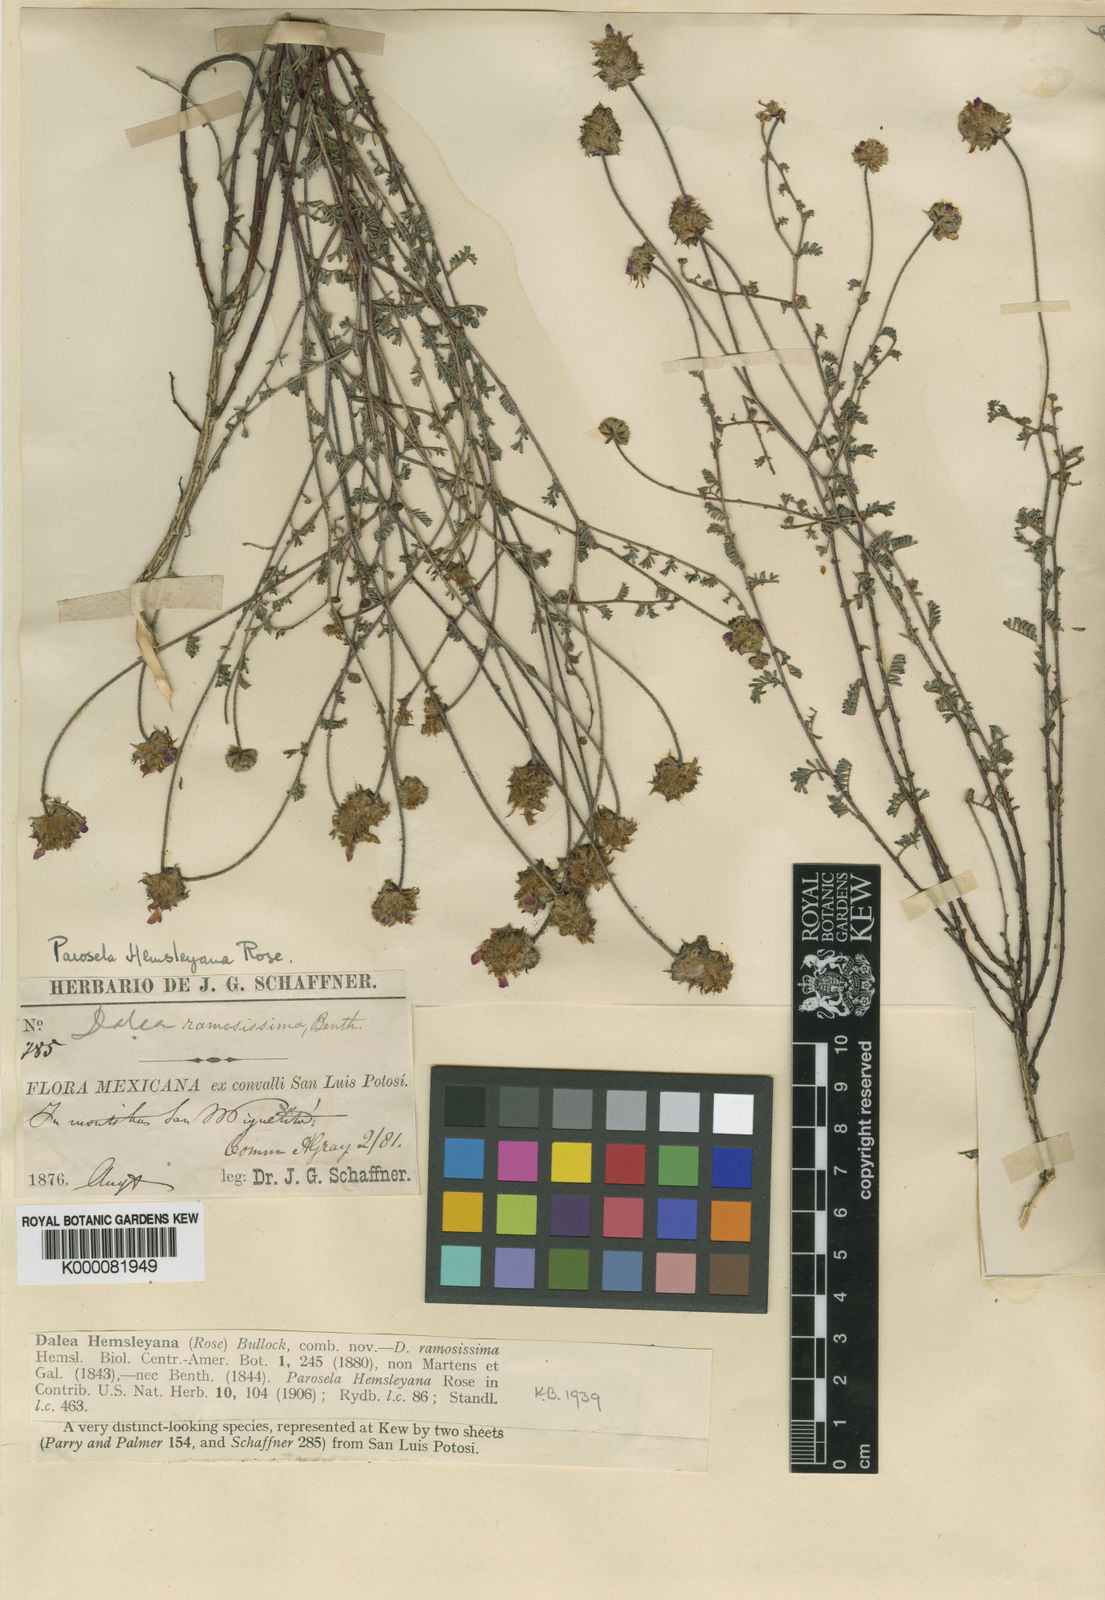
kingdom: Plantae
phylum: Tracheophyta
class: Magnoliopsida
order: Fabales
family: Fabaceae
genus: Dalea
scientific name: Dalea hemsleyana
